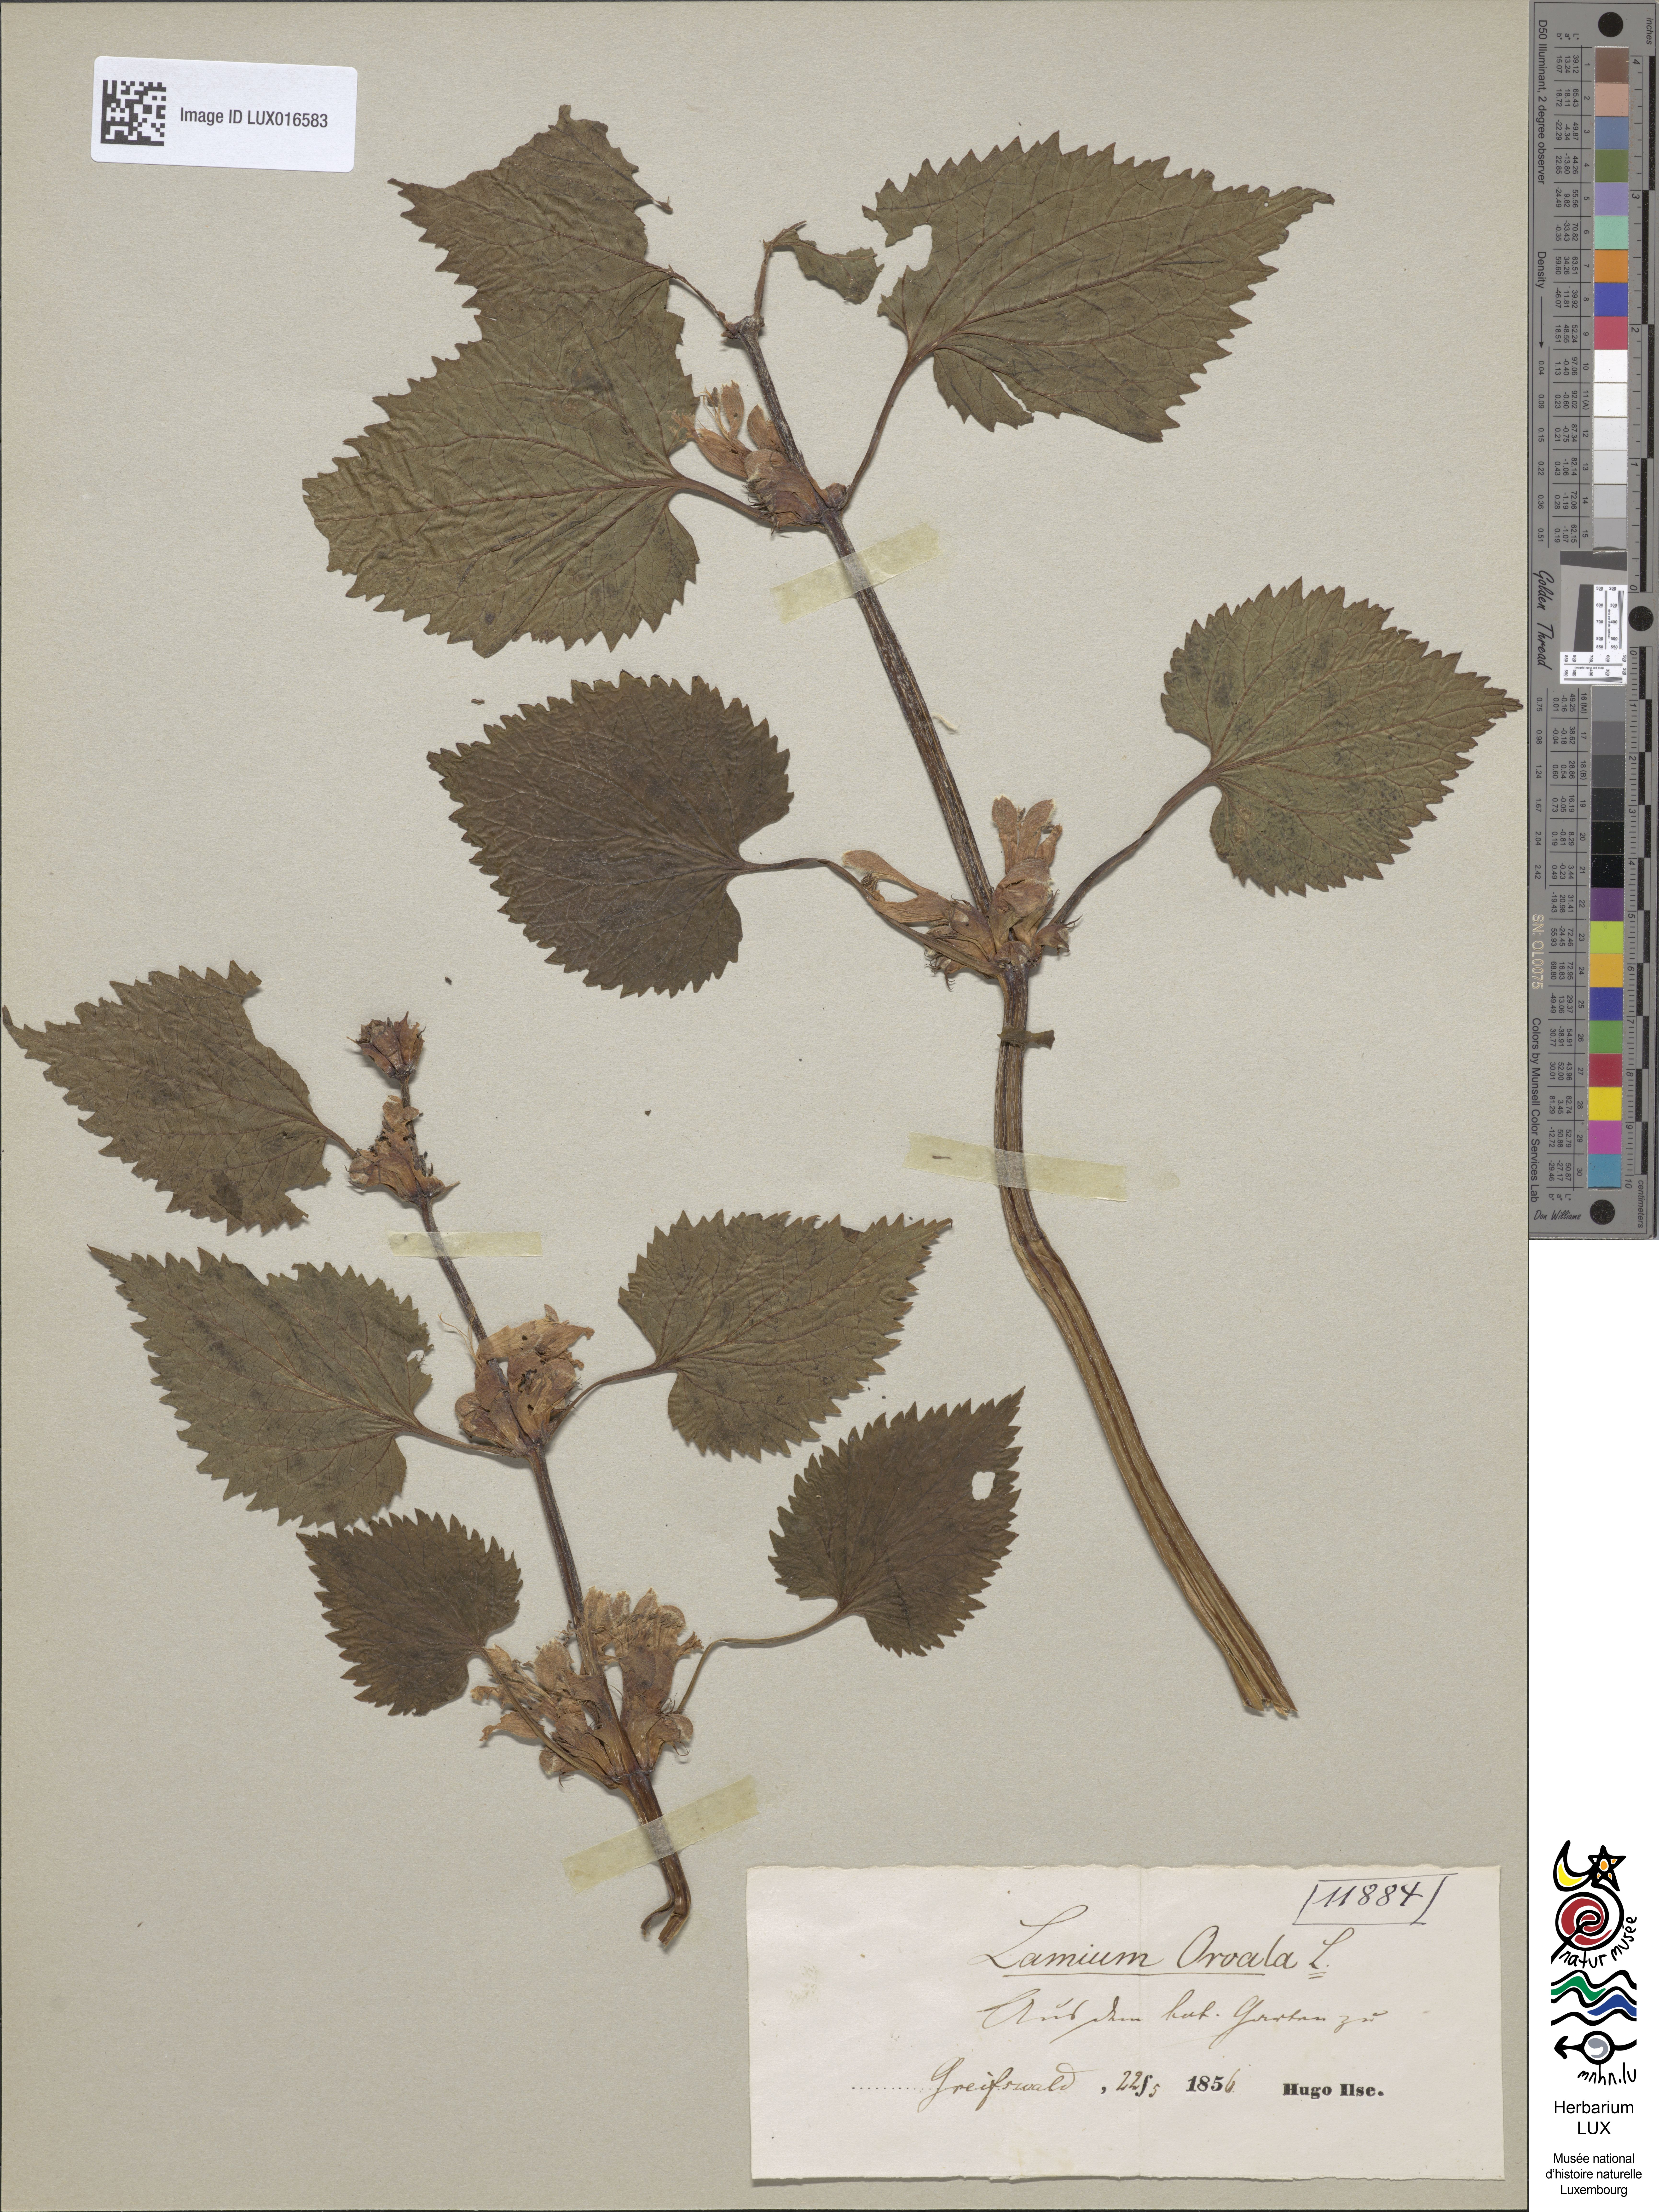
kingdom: Plantae
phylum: Tracheophyta
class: Magnoliopsida
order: Lamiales
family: Lamiaceae
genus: Lamium
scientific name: Lamium orvala
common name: Balm-leaved archangel
